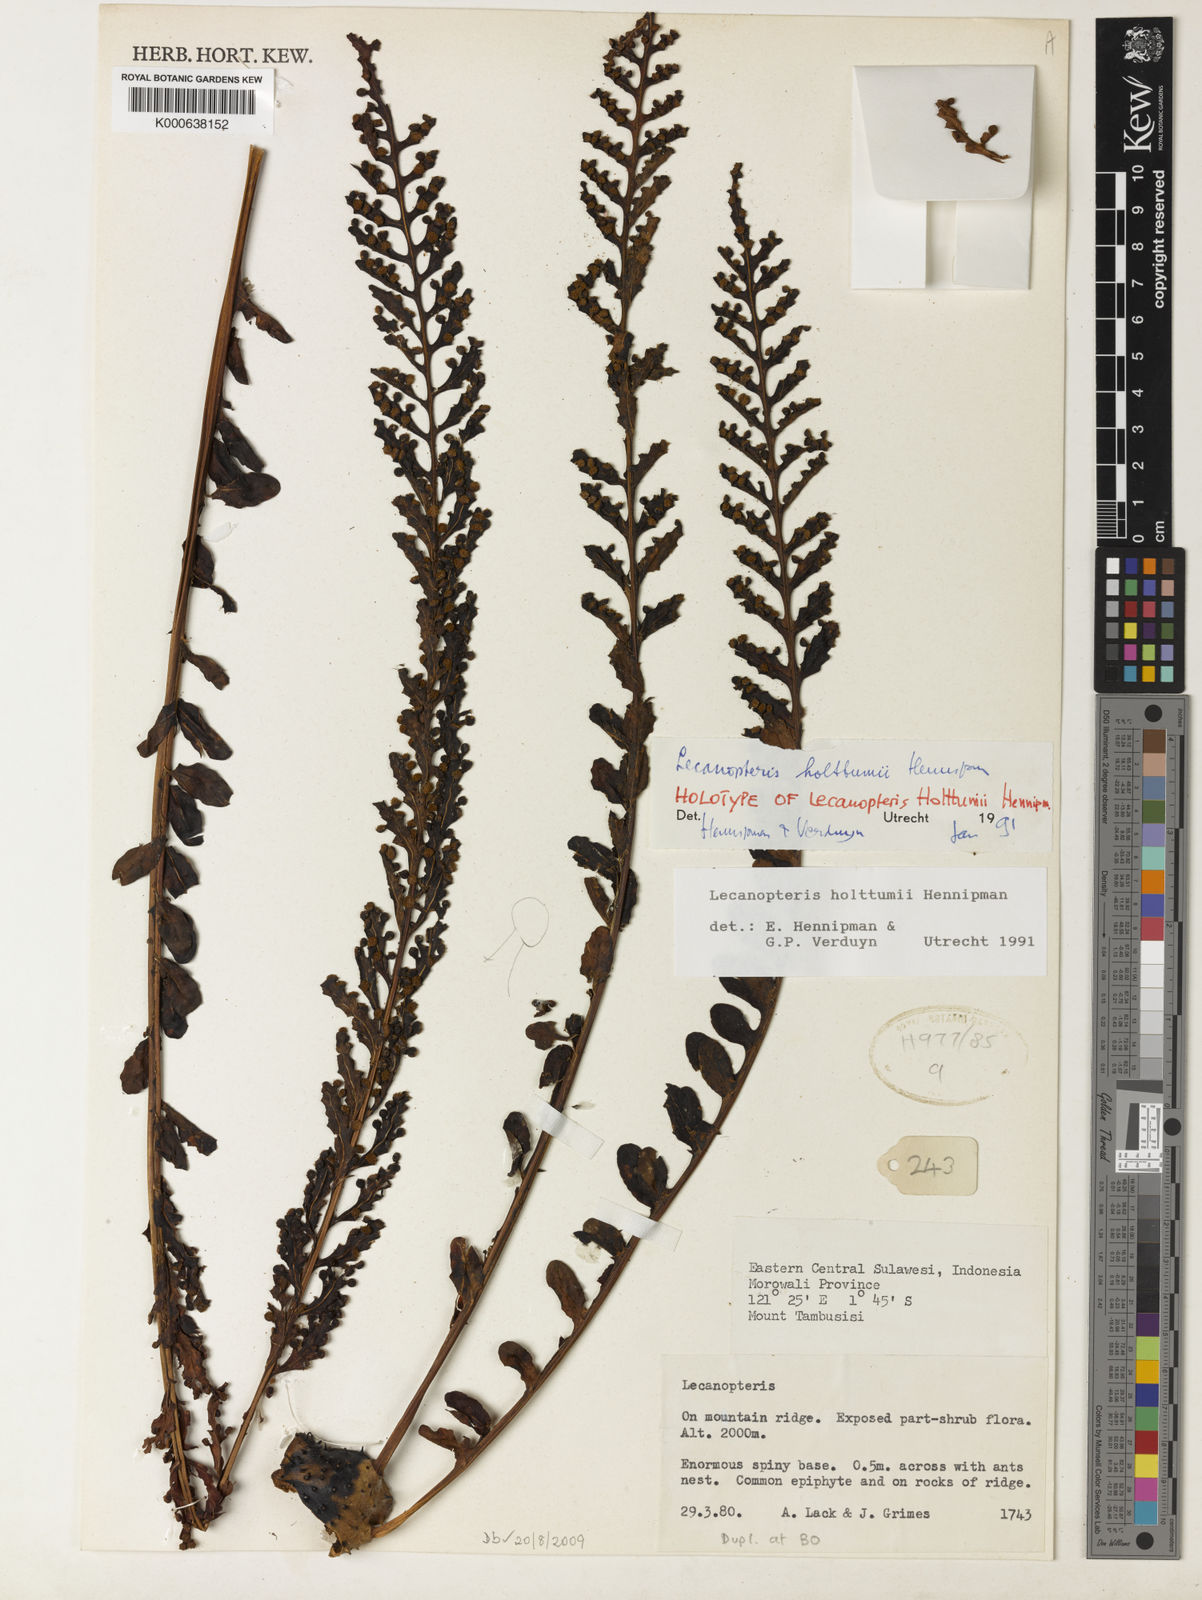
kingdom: Plantae
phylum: Tracheophyta
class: Polypodiopsida
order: Polypodiales
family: Polypodiaceae
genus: Lecanopteris
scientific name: Lecanopteris holttumii
